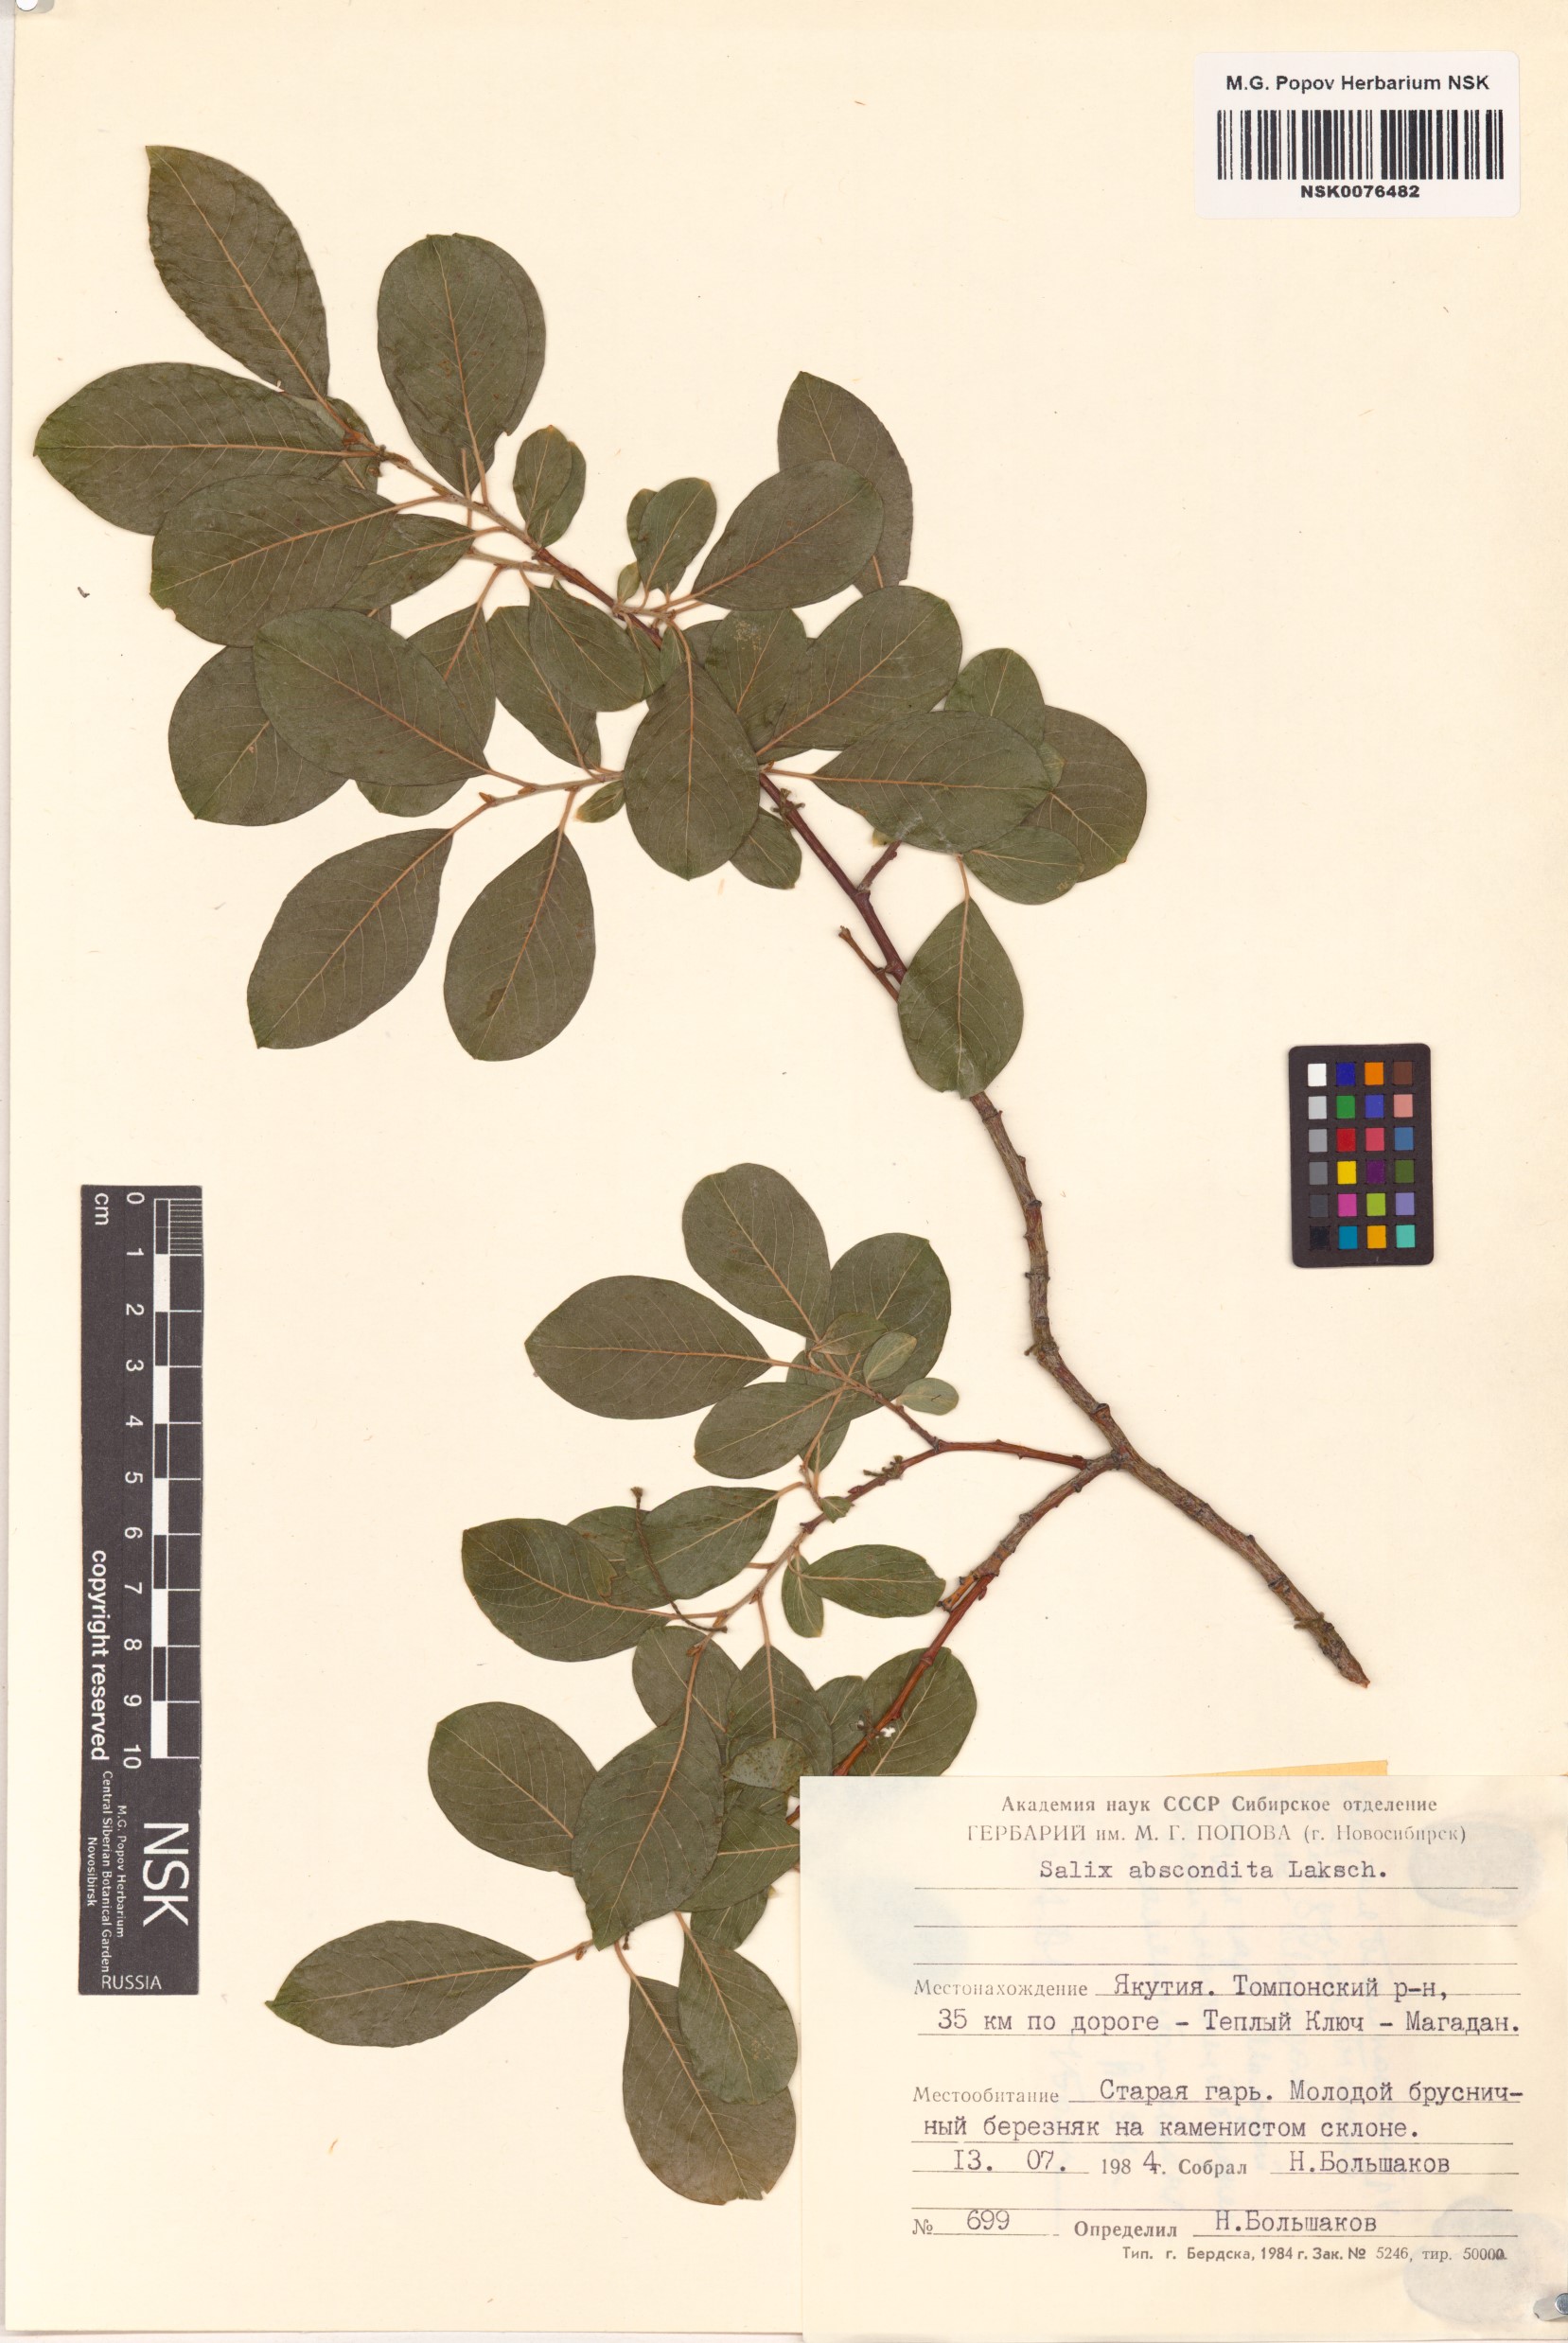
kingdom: Plantae
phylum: Tracheophyta
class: Magnoliopsida
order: Malpighiales
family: Salicaceae
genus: Salix
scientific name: Salix abscondita
